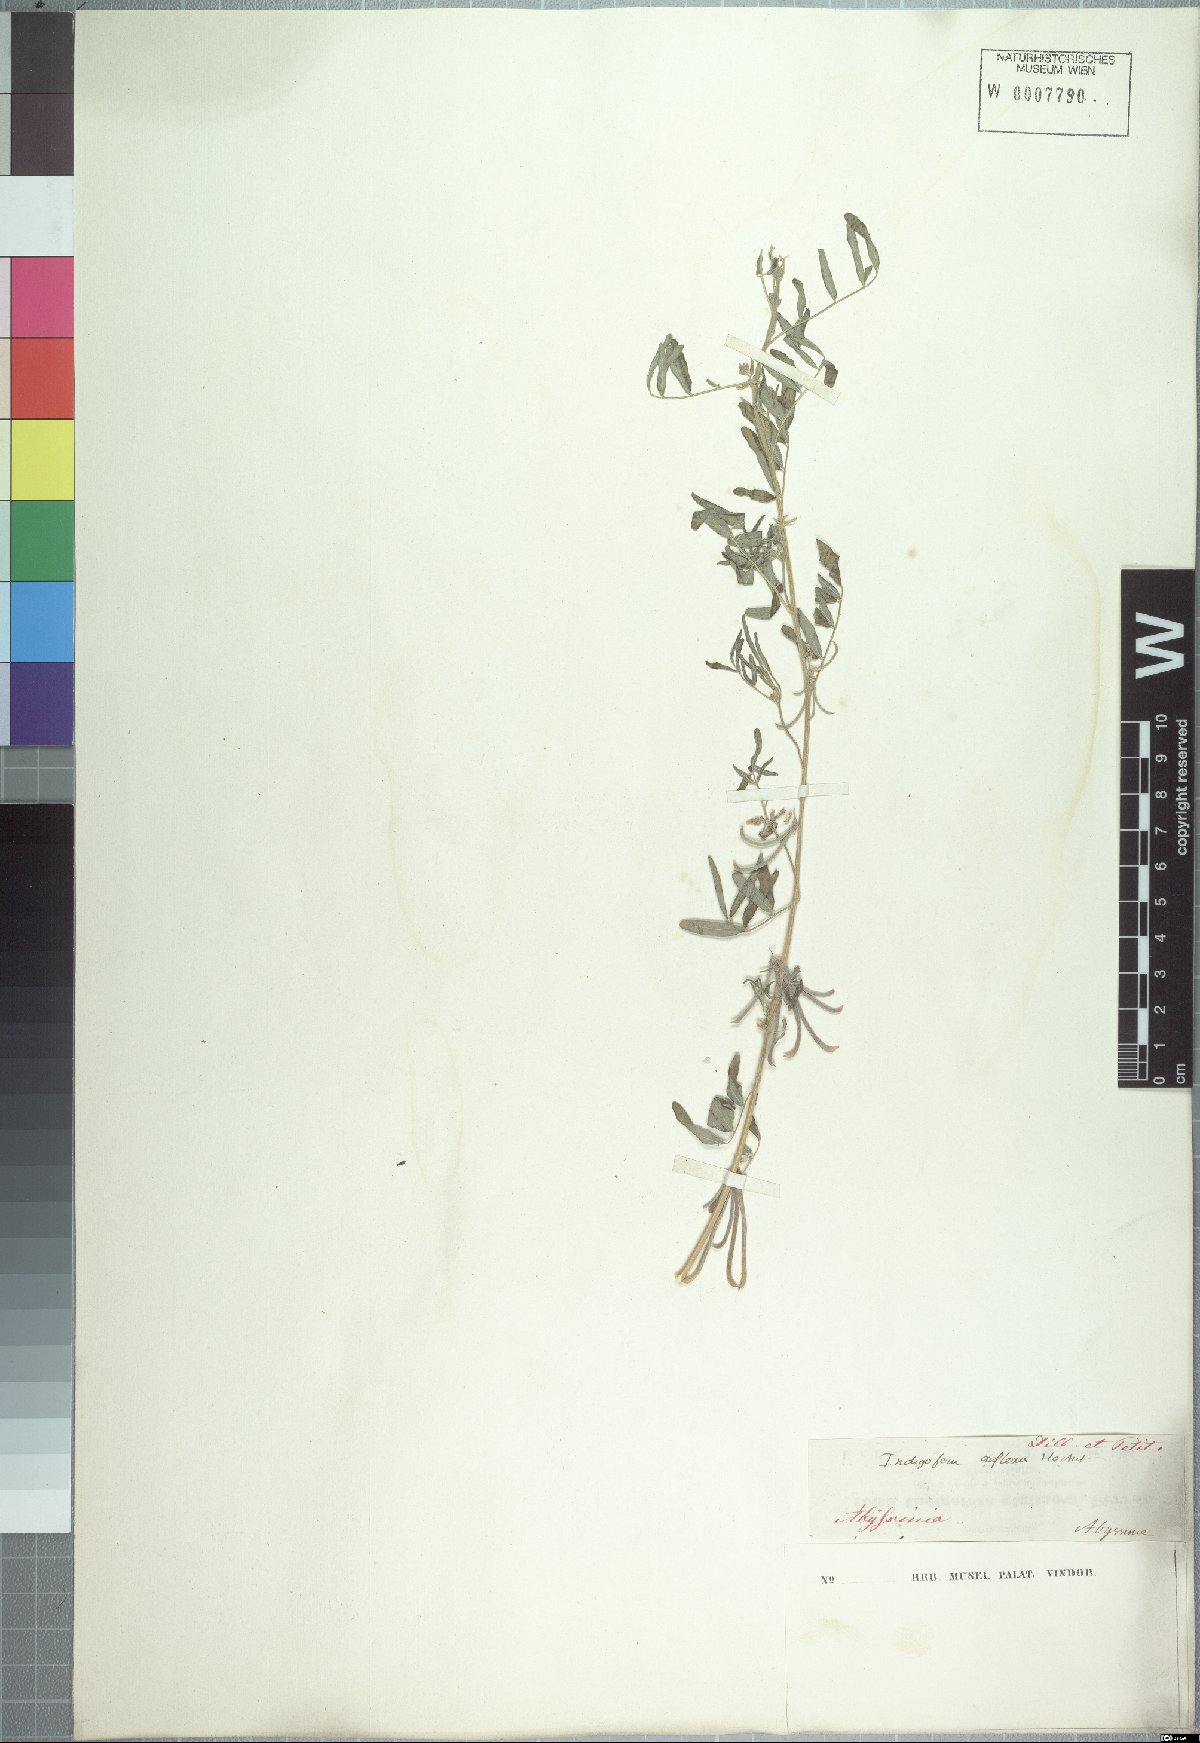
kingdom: Plantae
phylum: Tracheophyta
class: Magnoliopsida
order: Fabales
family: Fabaceae
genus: Indigastrum
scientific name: Indigastrum parviflorum
